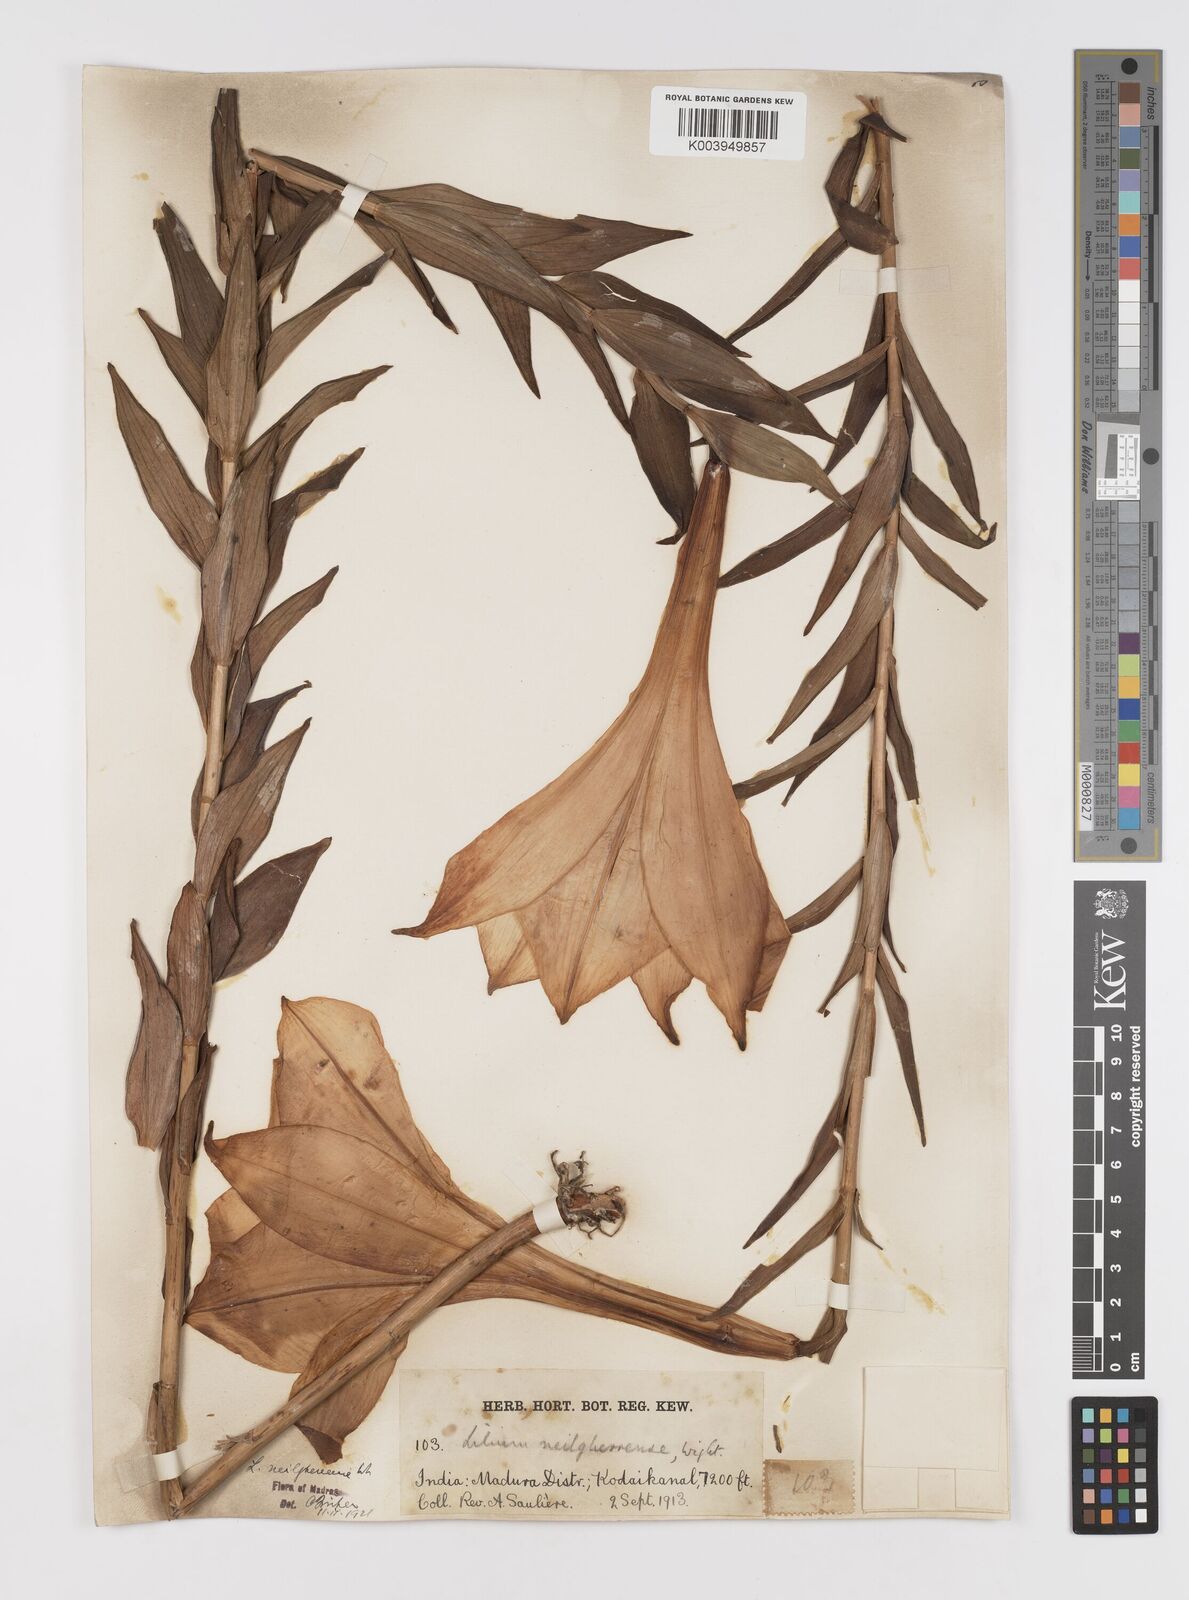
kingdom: Plantae
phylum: Tracheophyta
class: Liliopsida
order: Liliales
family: Liliaceae
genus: Lilium
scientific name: Lilium wallichianum
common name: Wallich's lily
